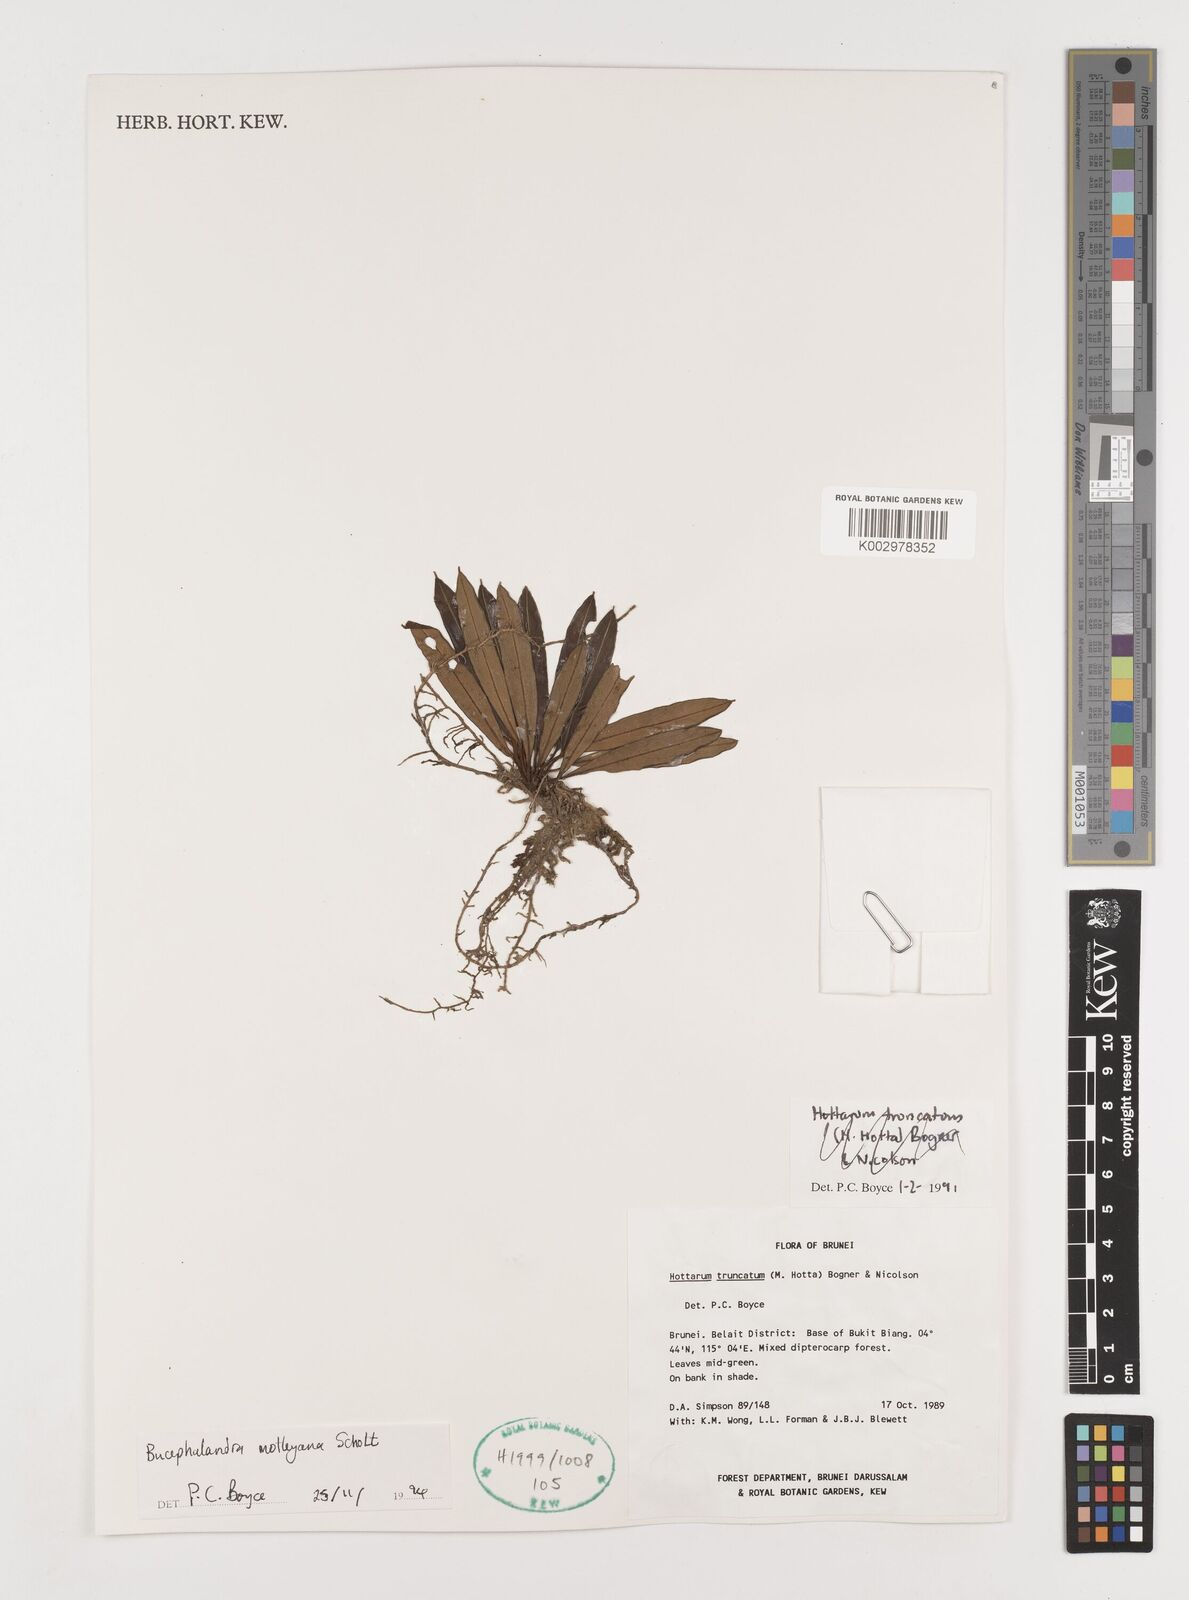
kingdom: Plantae
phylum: Tracheophyta
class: Liliopsida
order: Alismatales
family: Araceae
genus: Bucephalandra
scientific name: Bucephalandra motleyana
